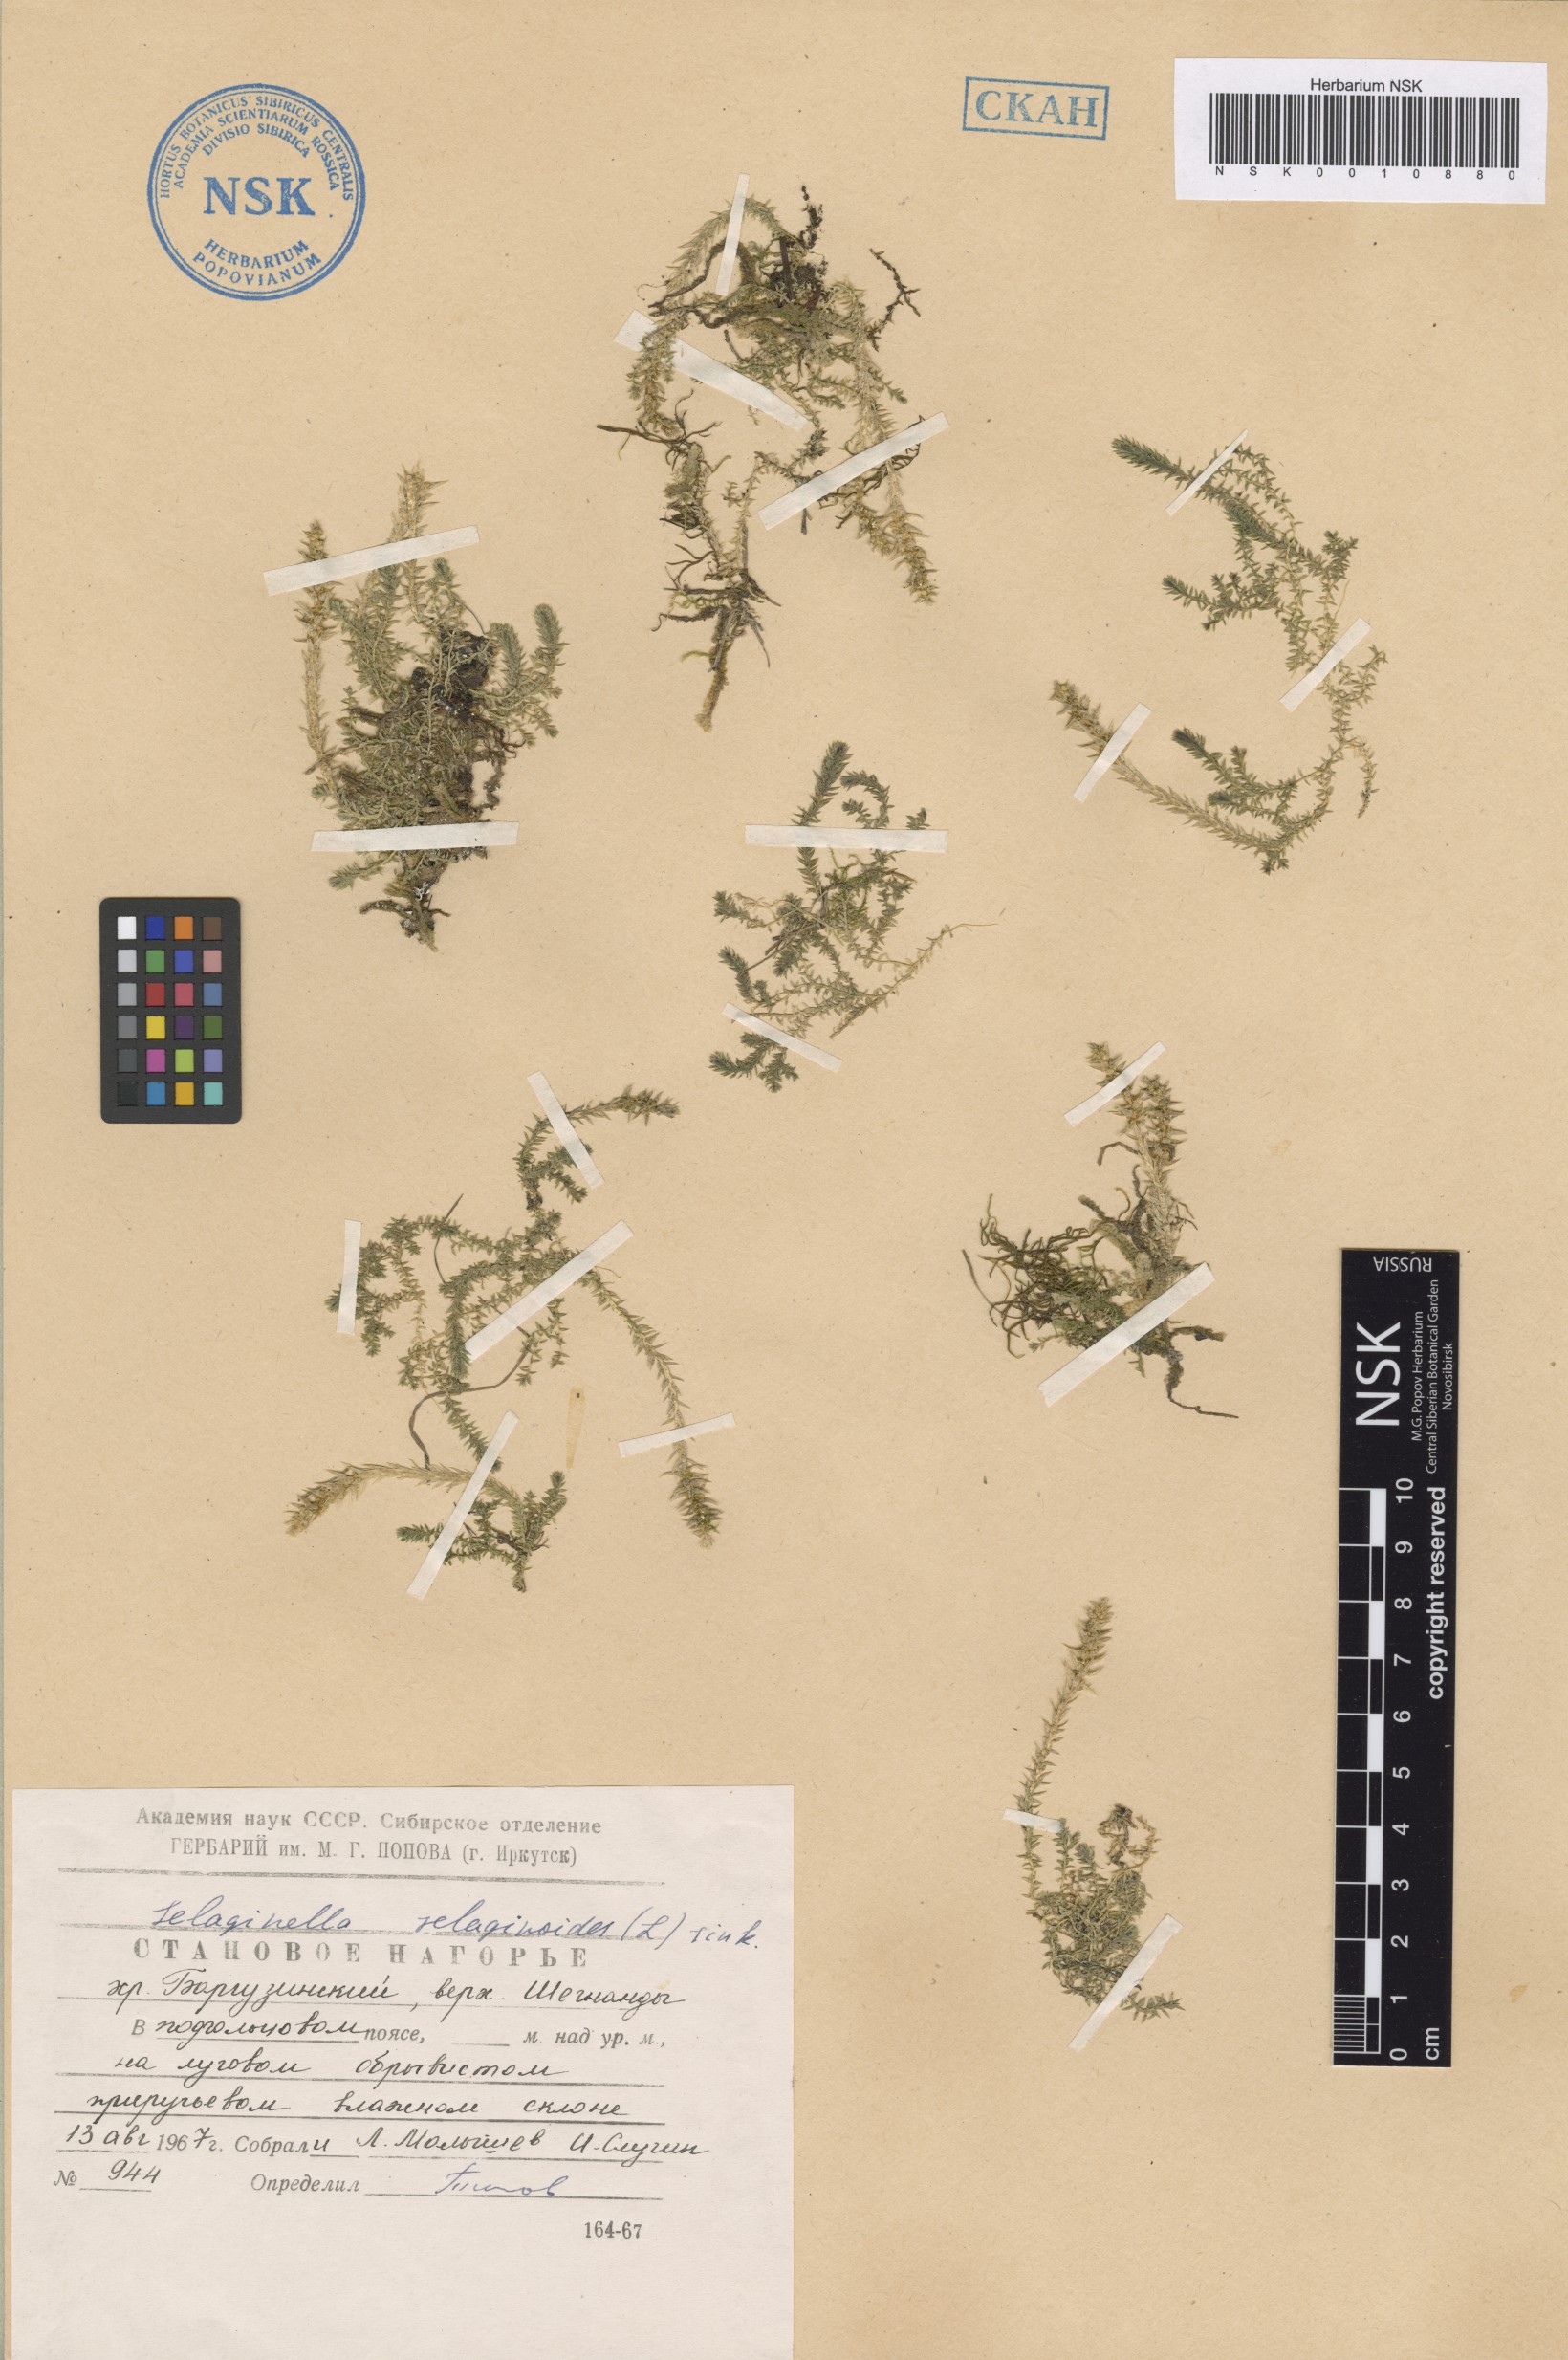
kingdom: Plantae
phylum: Tracheophyta
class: Lycopodiopsida
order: Selaginellales
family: Selaginellaceae
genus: Selaginella
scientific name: Selaginella selaginoides
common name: Prickly mountain-moss
